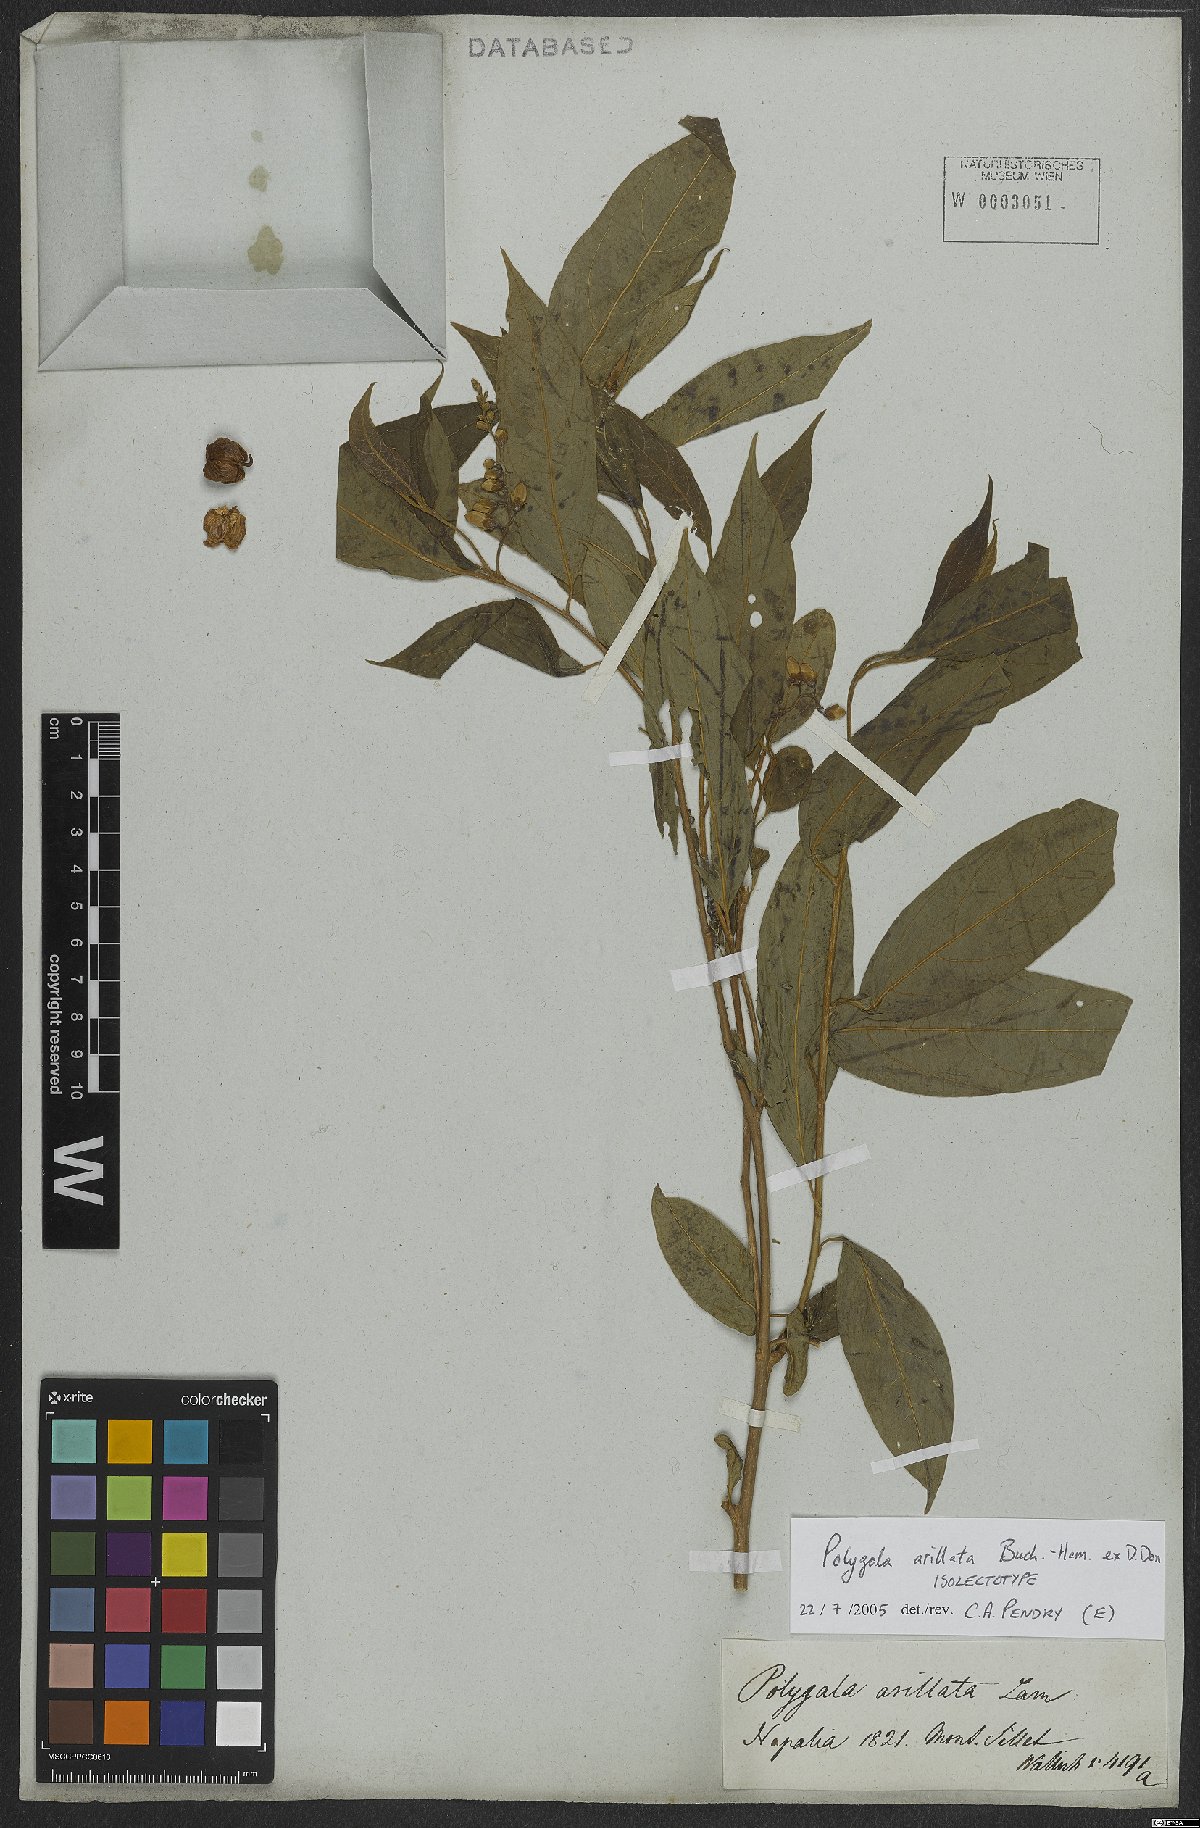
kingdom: Plantae
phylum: Tracheophyta
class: Magnoliopsida
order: Fabales
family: Polygalaceae
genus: Polygala
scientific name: Polygala arillata
